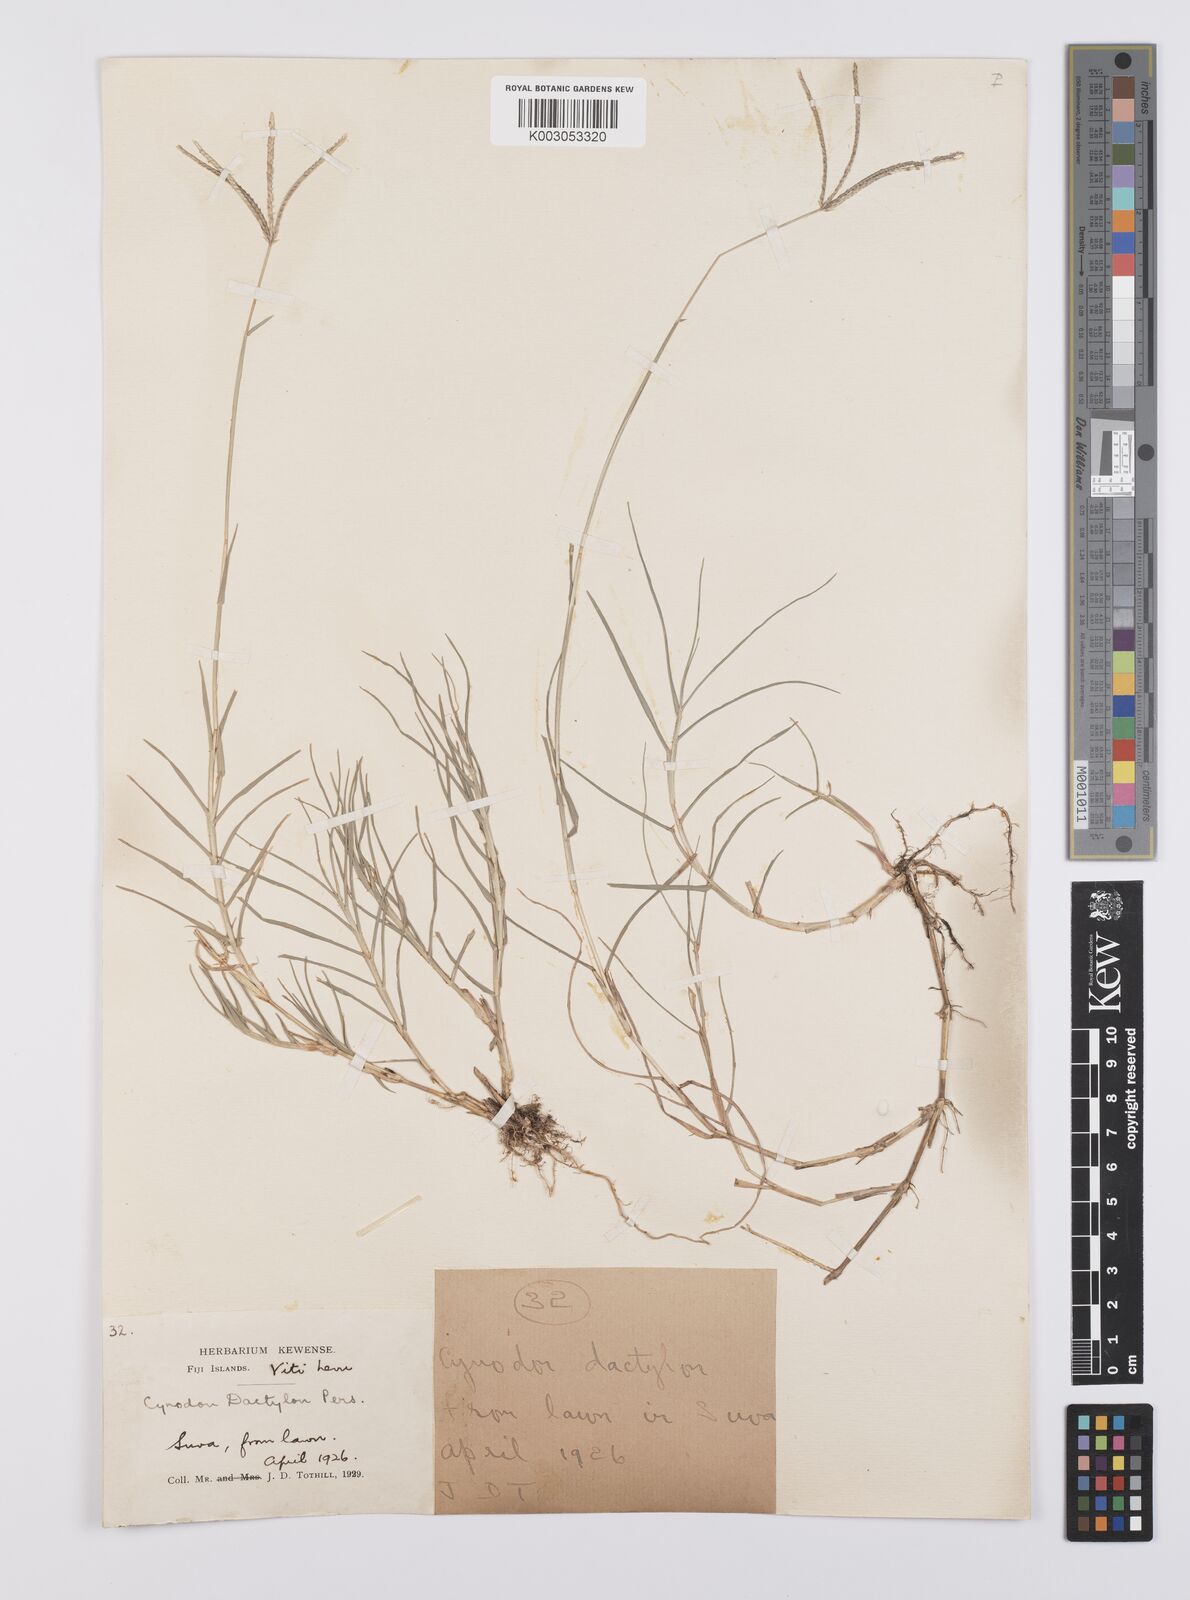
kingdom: Plantae
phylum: Tracheophyta
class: Liliopsida
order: Poales
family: Poaceae
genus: Cynodon
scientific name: Cynodon dactylon
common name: Bermuda grass
